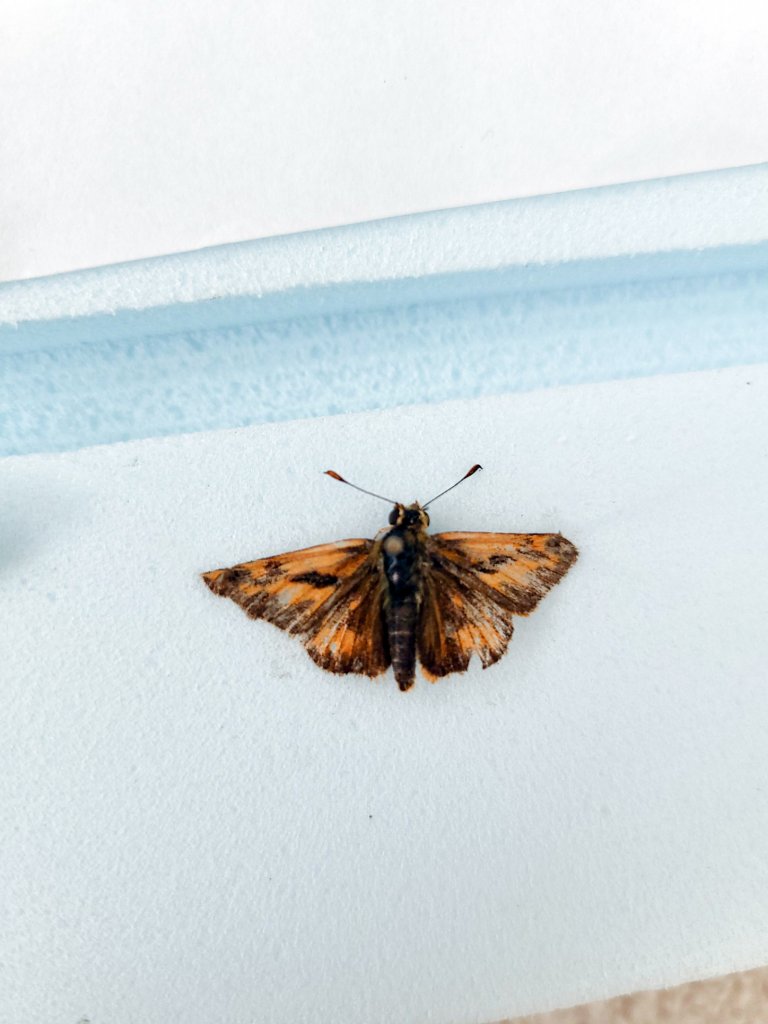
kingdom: Animalia
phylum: Arthropoda
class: Insecta
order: Lepidoptera
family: Hesperiidae
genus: Ochlodes
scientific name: Ochlodes sylvanoides
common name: Woodland Skipper
